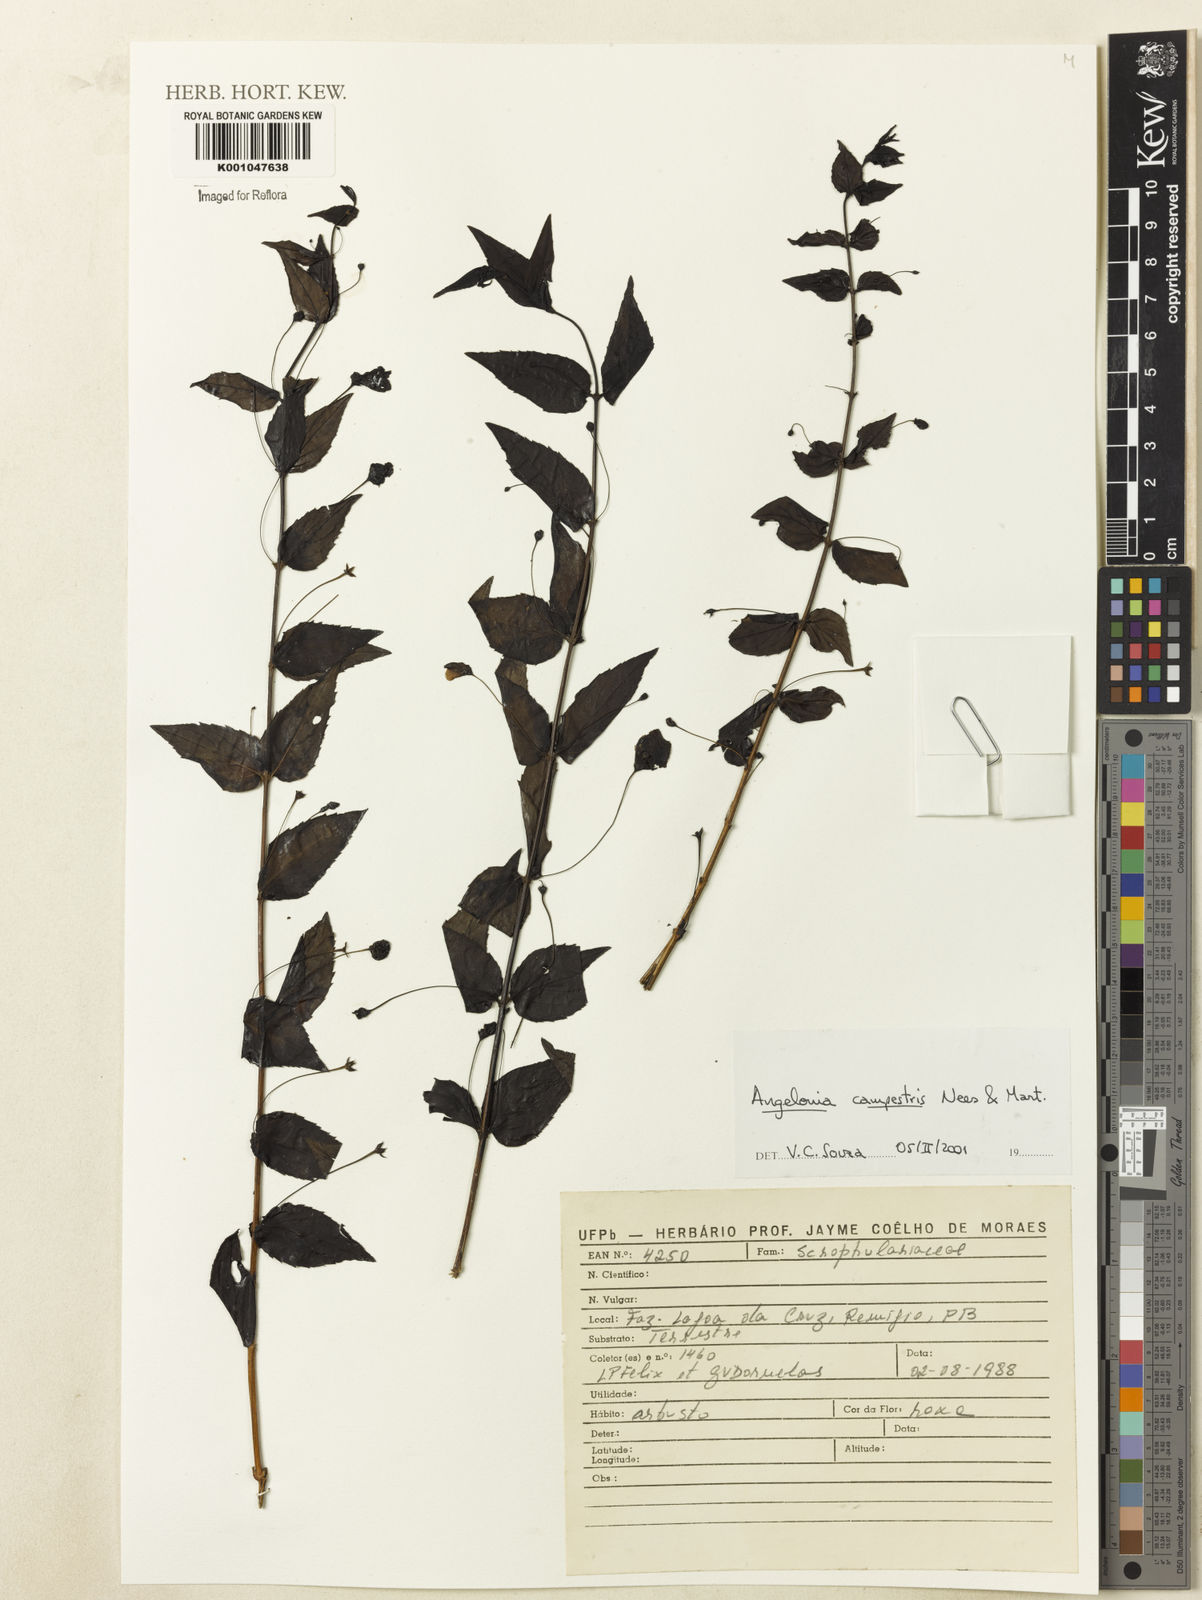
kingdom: Plantae
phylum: Tracheophyta
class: Magnoliopsida
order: Lamiales
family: Plantaginaceae
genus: Angelonia
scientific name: Angelonia campestris
